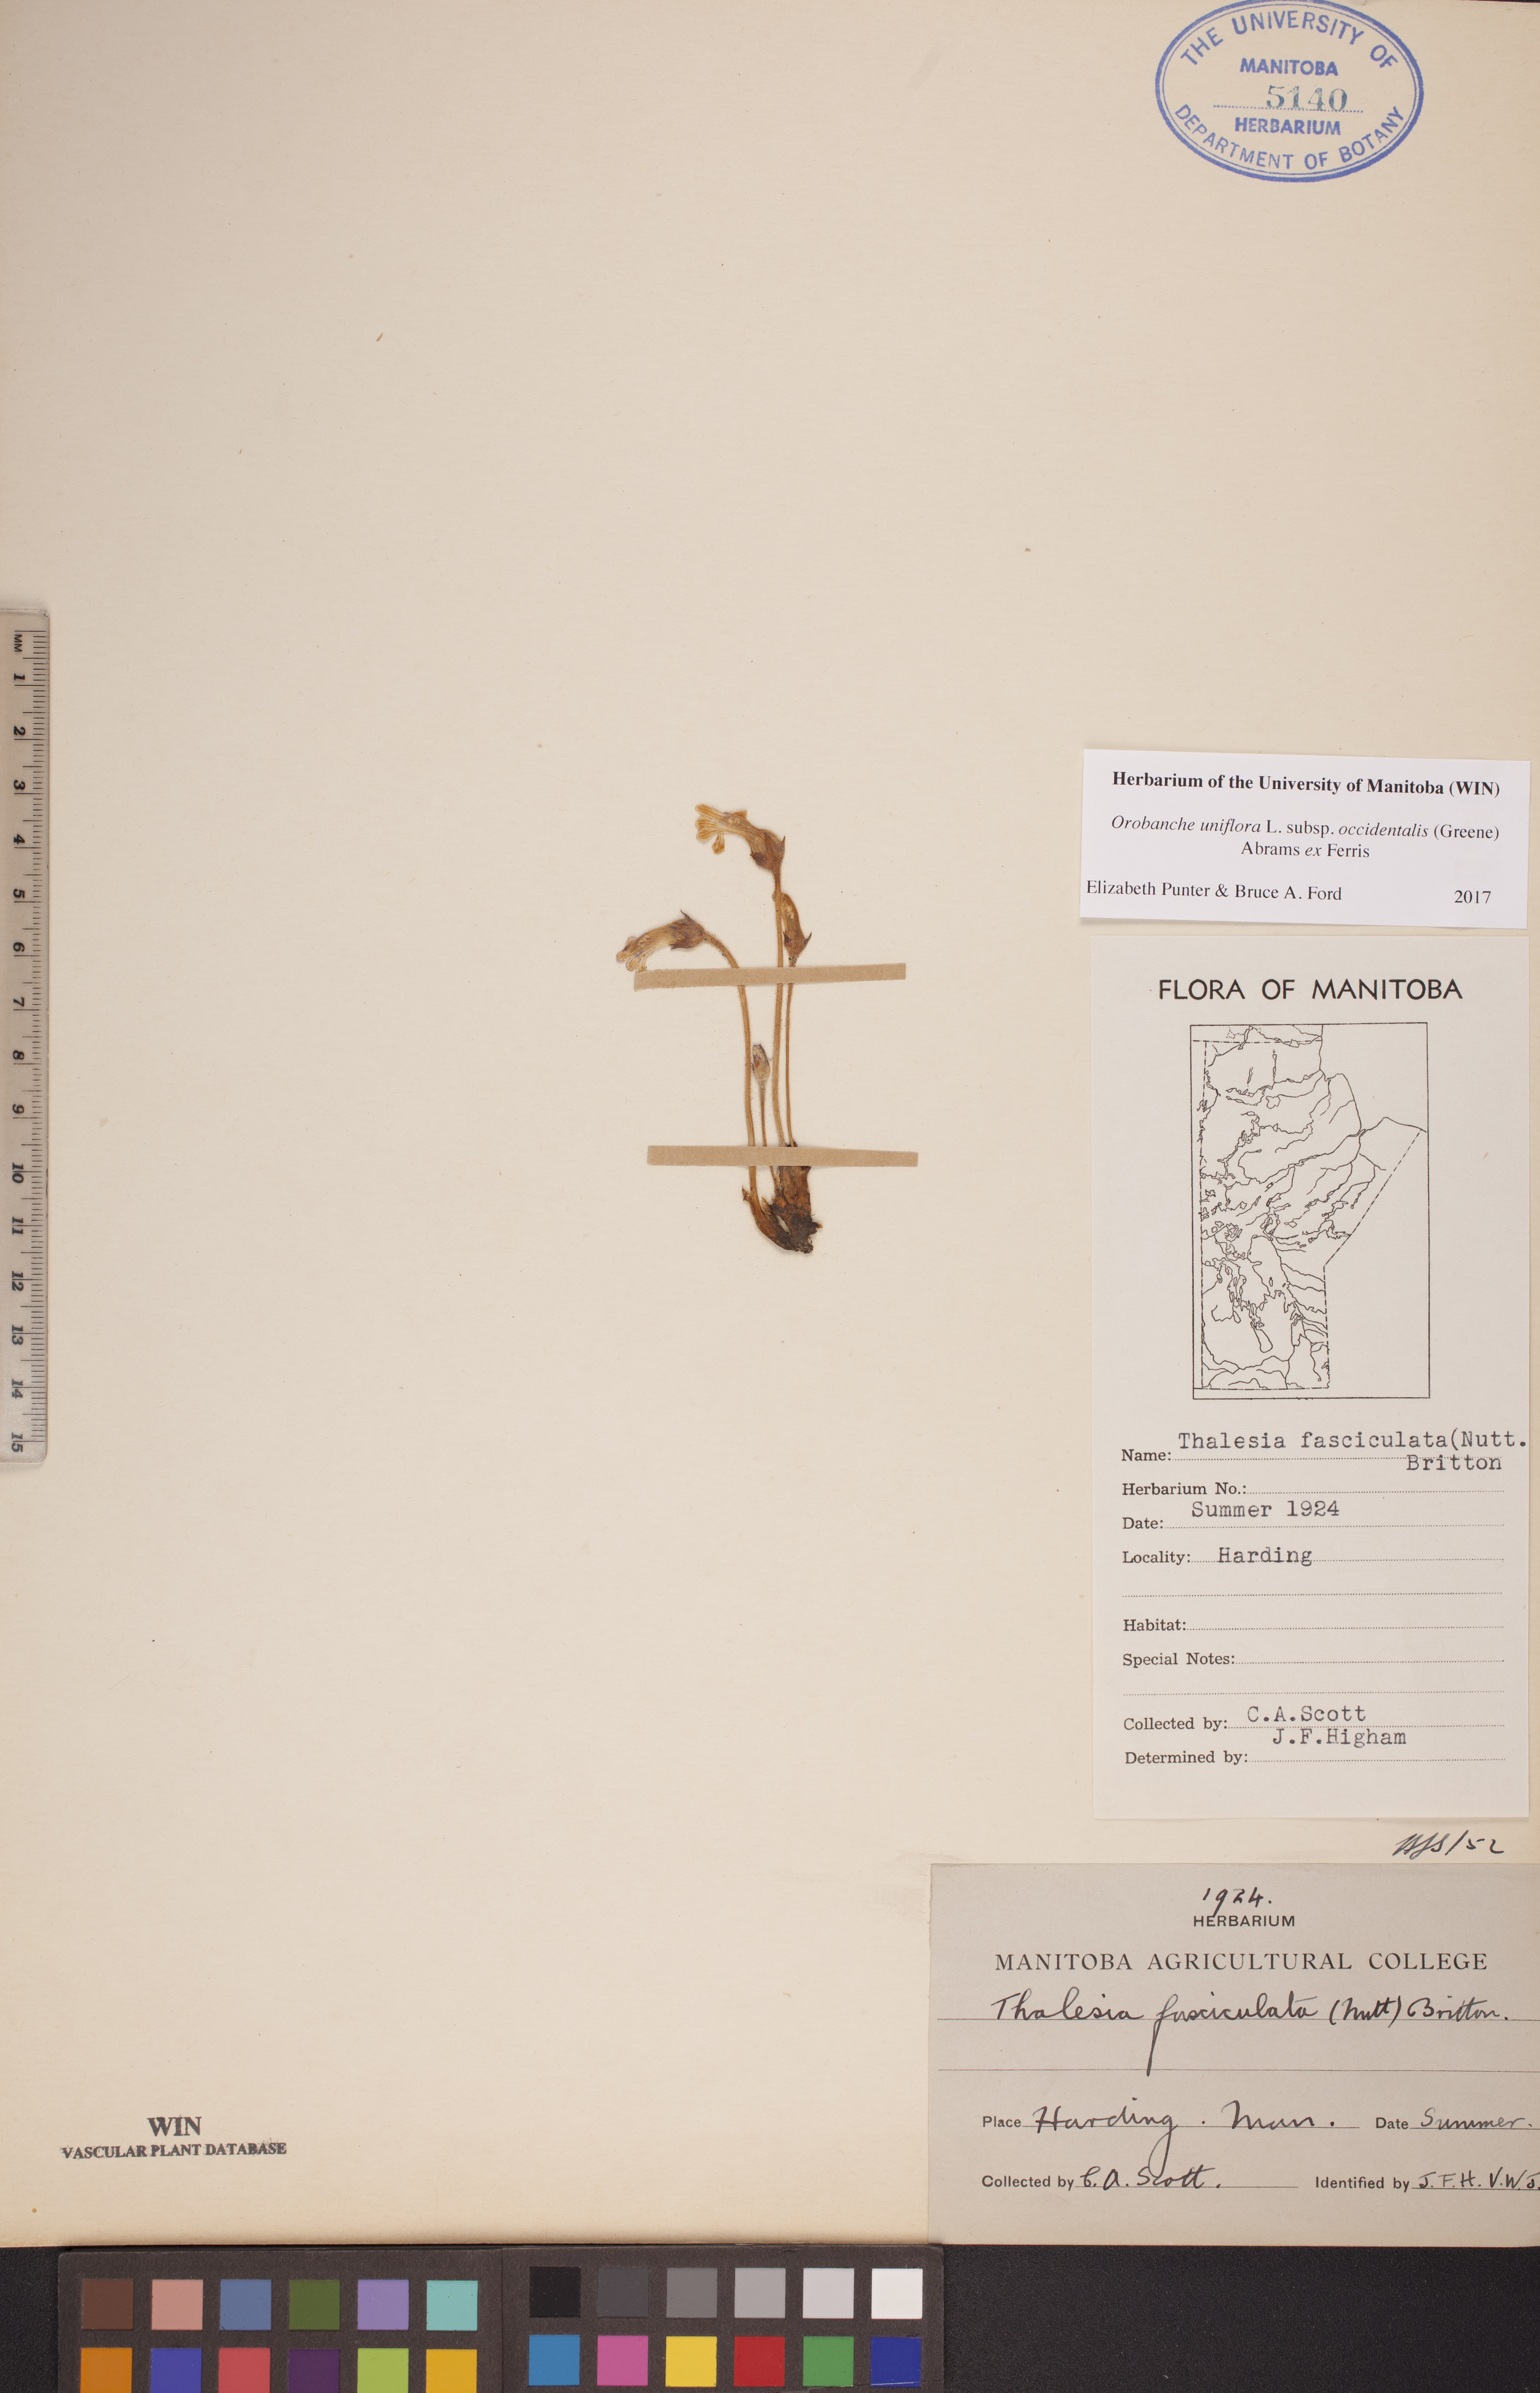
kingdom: Plantae
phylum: Tracheophyta
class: Magnoliopsida
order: Lamiales
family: Orobanchaceae
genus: Aphyllon
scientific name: Aphyllon uniflorum
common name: One-flowered broomrape
